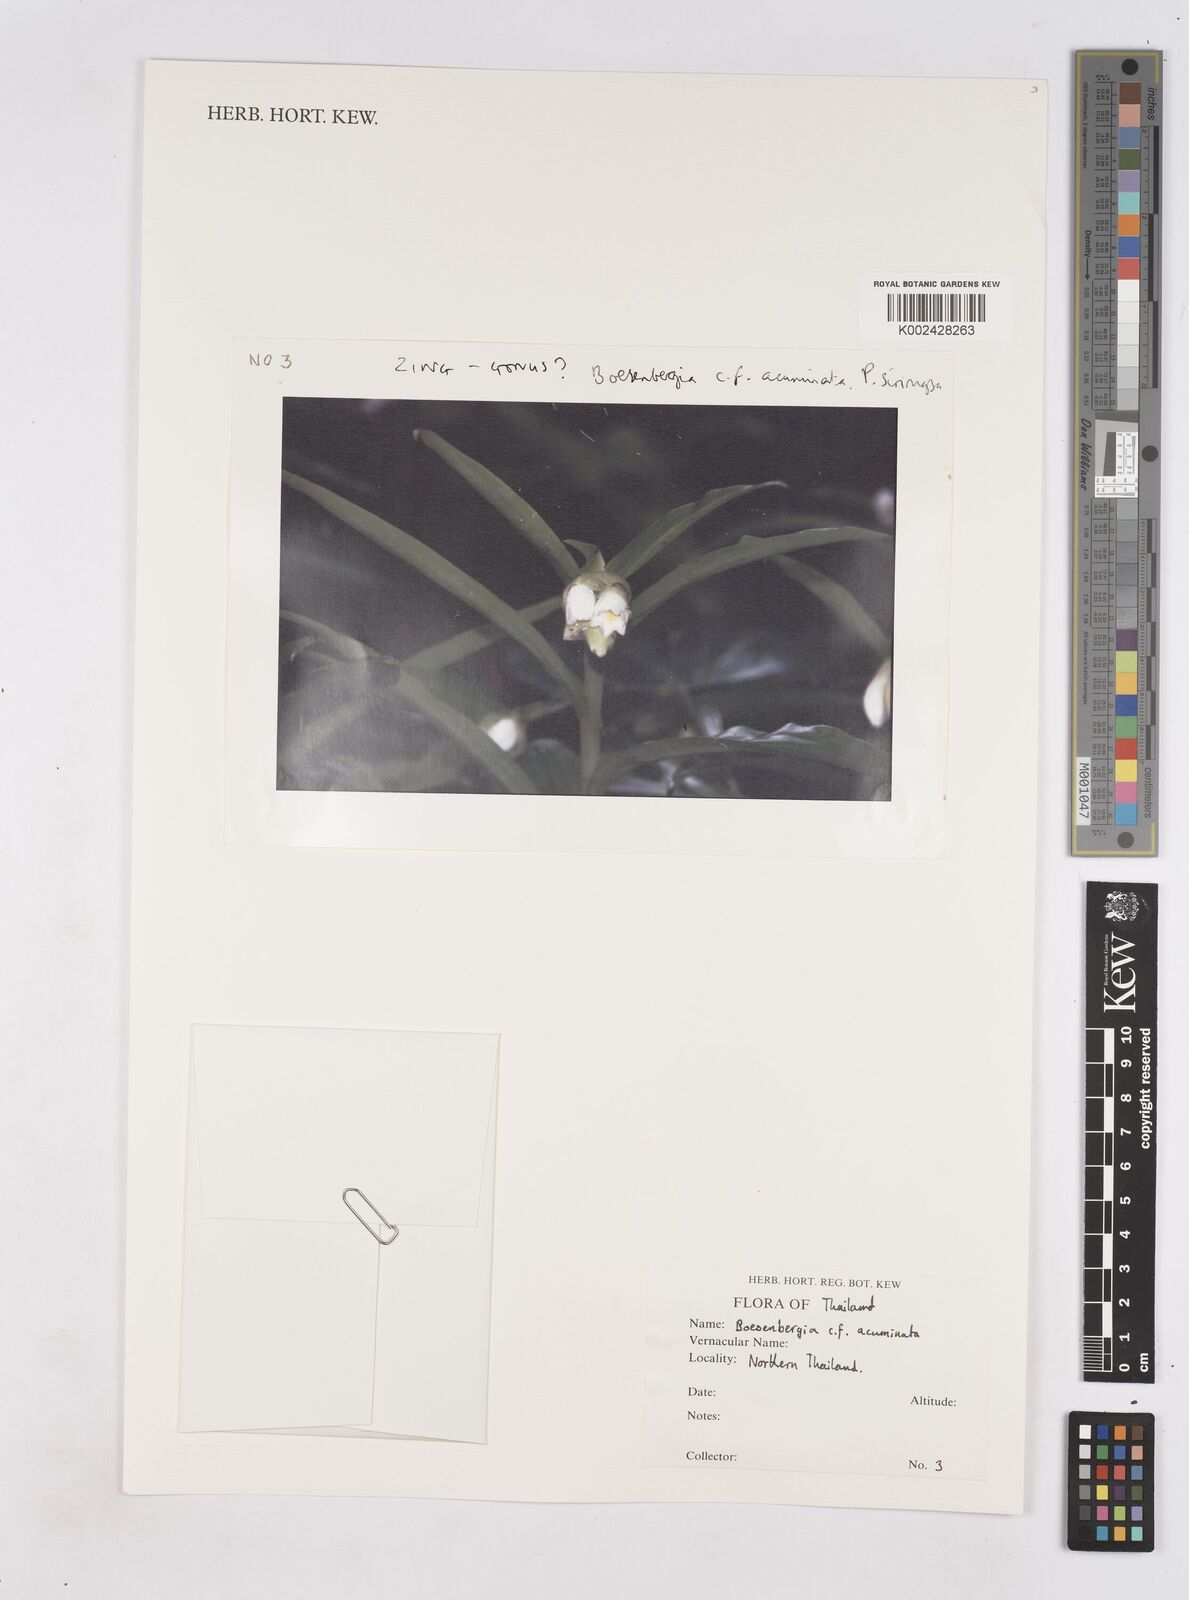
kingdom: Plantae
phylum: Tracheophyta
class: Liliopsida
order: Zingiberales
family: Zingiberaceae
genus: Boesenbergia
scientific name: Boesenbergia ochroleuca
